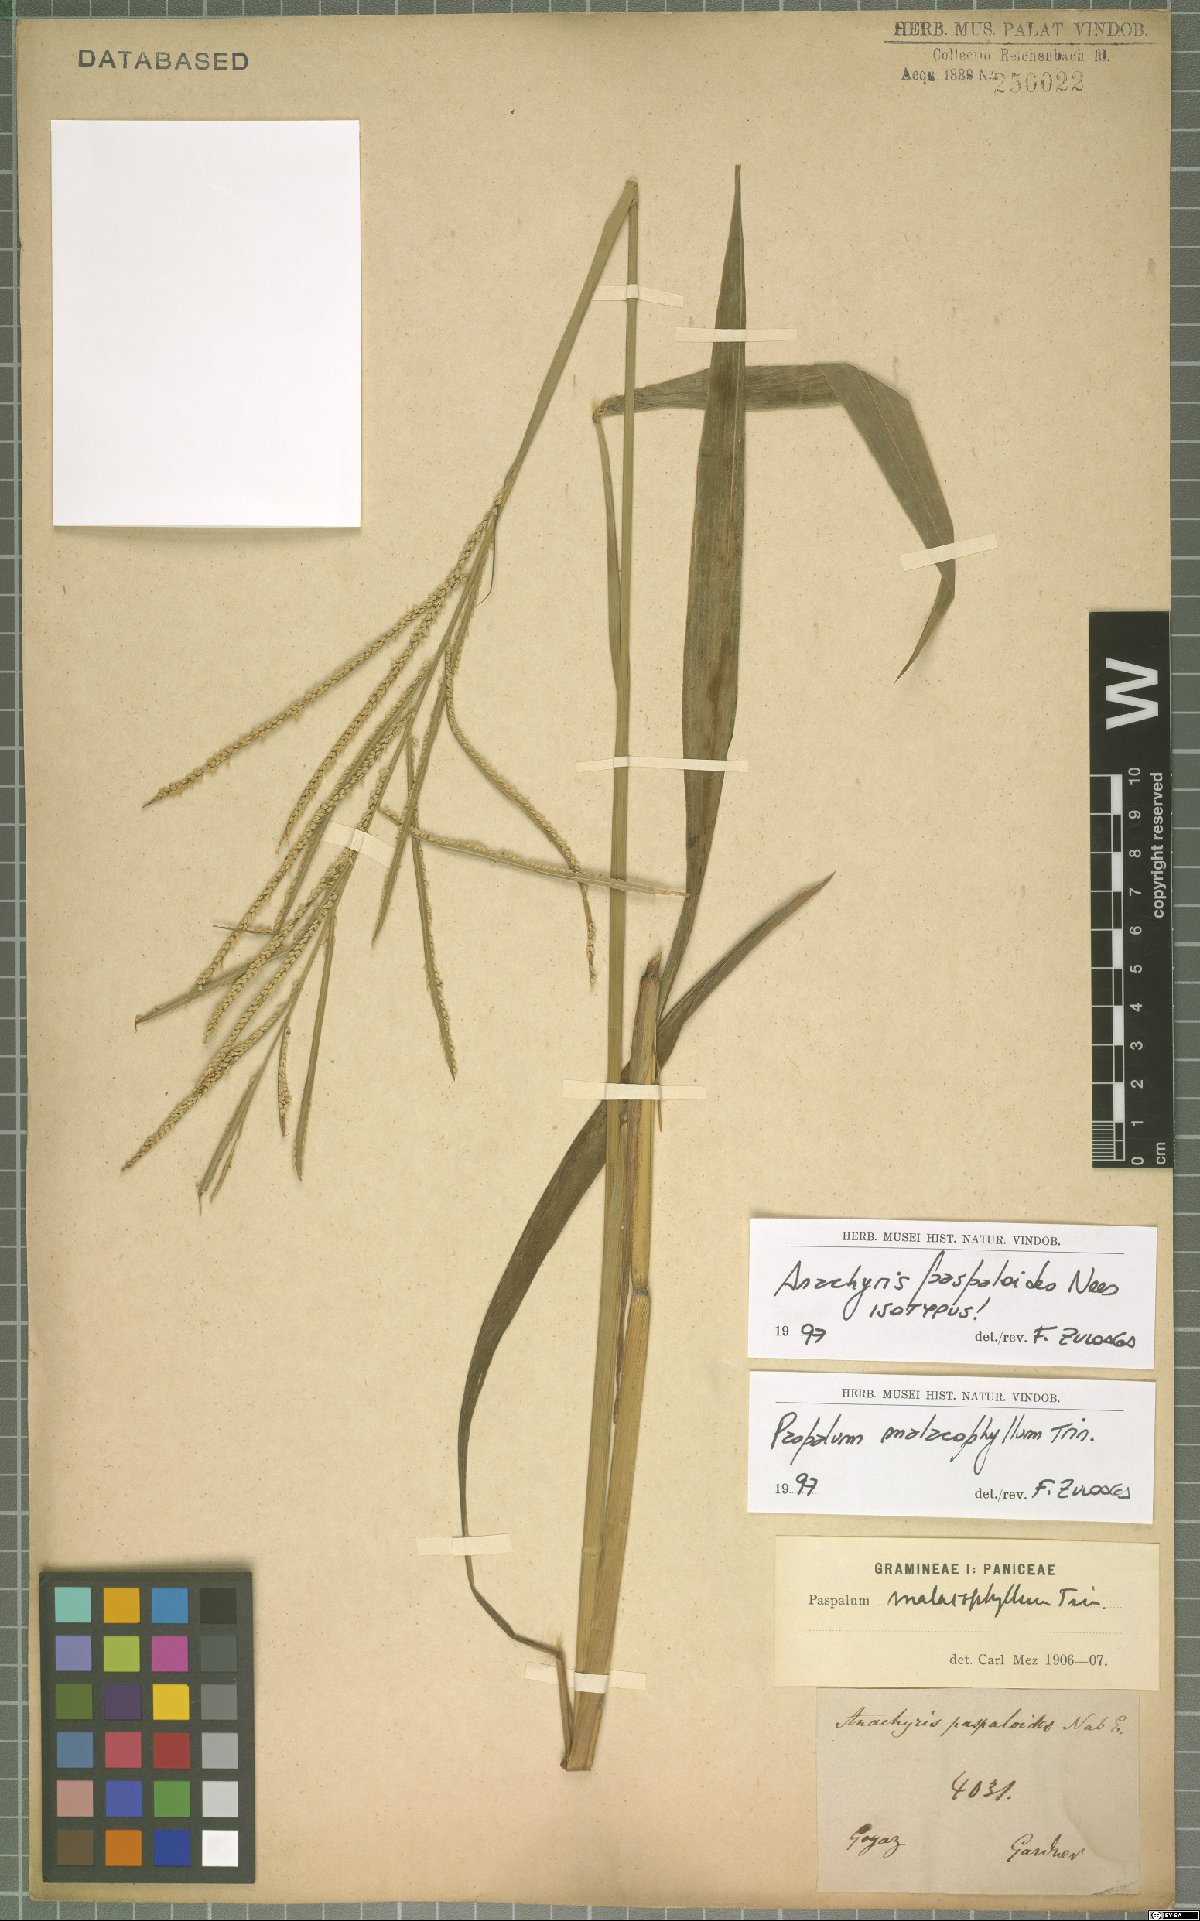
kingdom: Plantae
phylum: Tracheophyta
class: Liliopsida
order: Poales
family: Poaceae
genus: Paspalum
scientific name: Paspalum malacophyllum
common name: Ribbed paspalum
